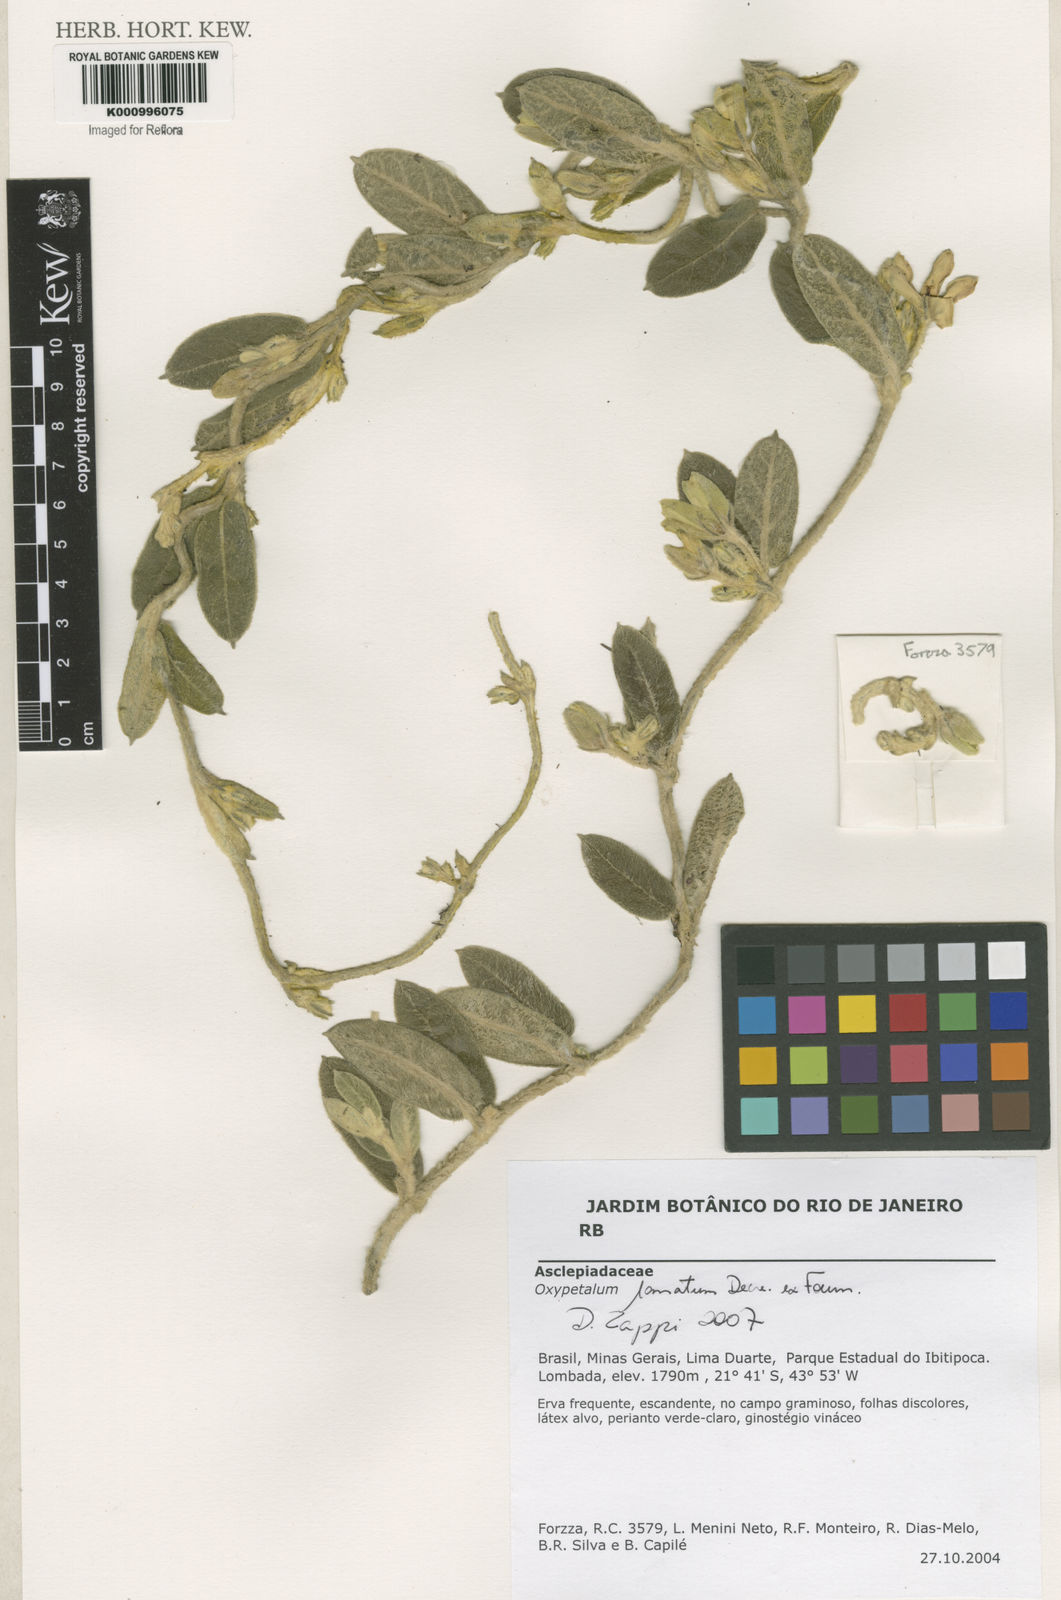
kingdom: Plantae
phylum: Tracheophyta
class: Magnoliopsida
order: Gentianales
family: Apocynaceae
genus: Oxypetalum
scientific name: Oxypetalum lanatum
